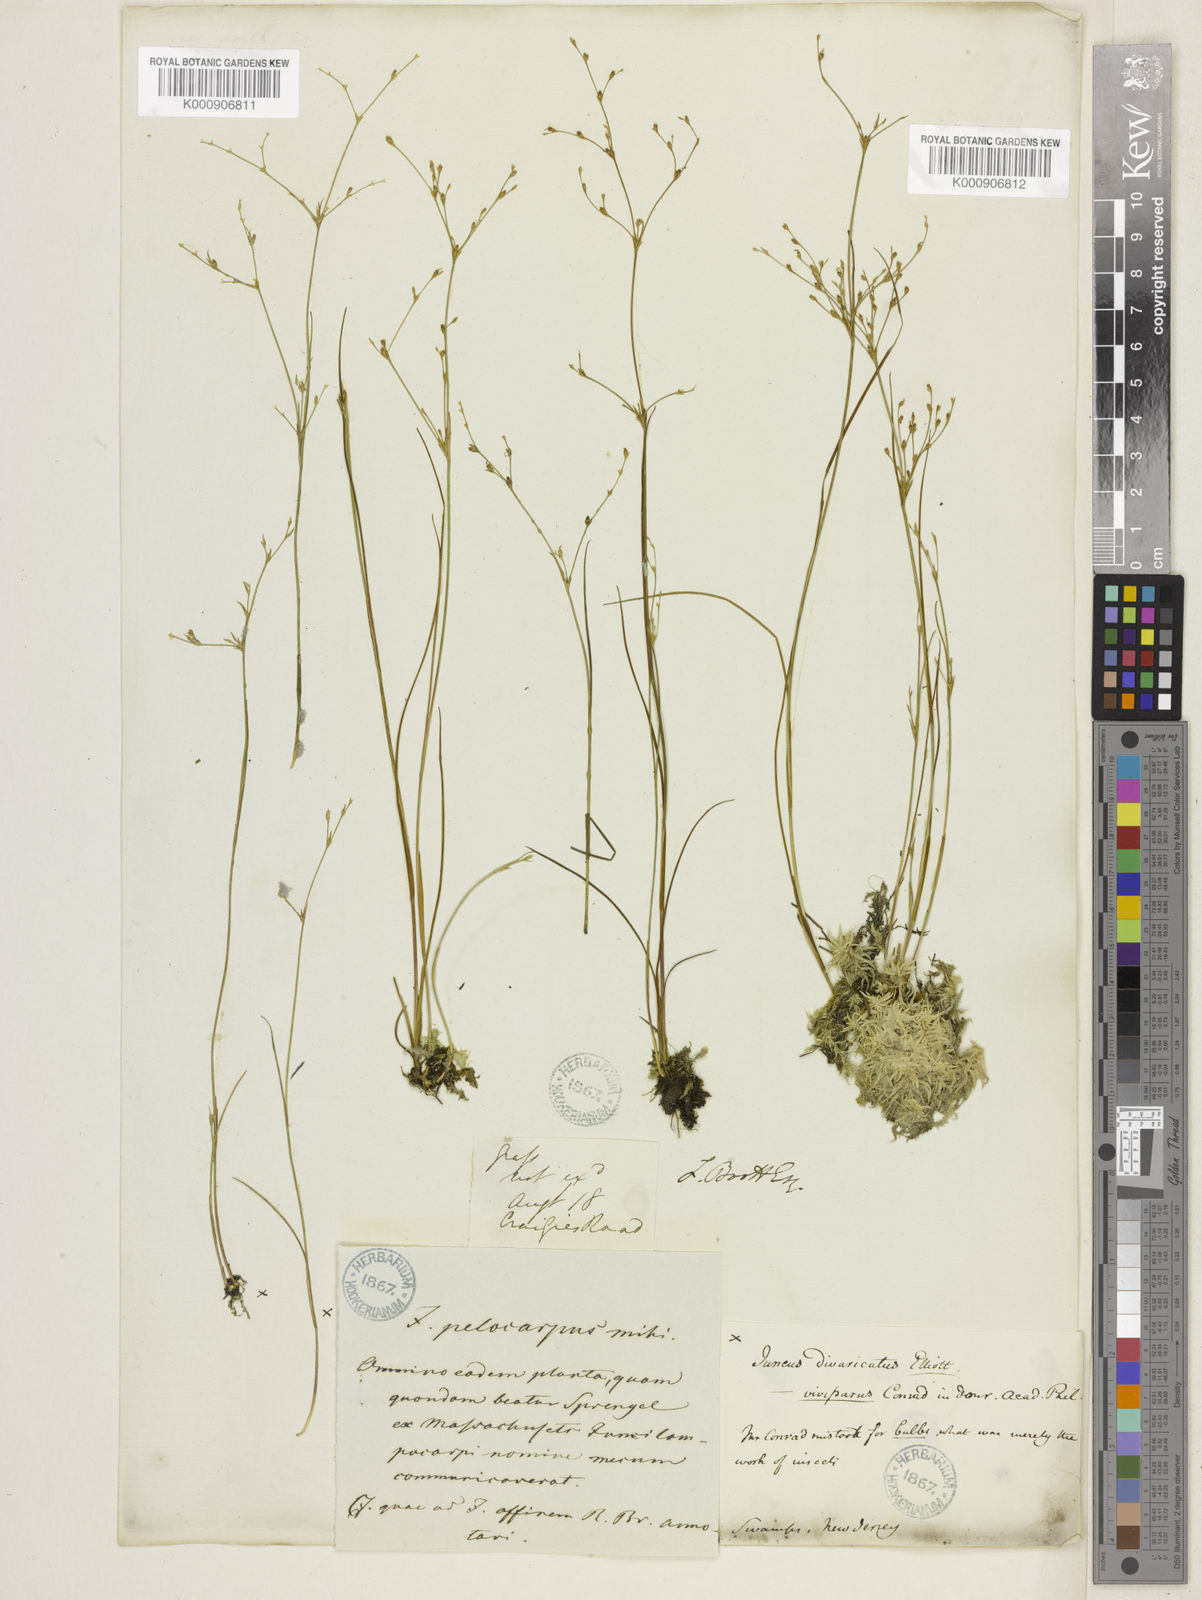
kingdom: Plantae
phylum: Tracheophyta
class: Liliopsida
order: Poales
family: Juncaceae
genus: Juncus
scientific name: Juncus pelocarpus
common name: Brown-fruited rush
